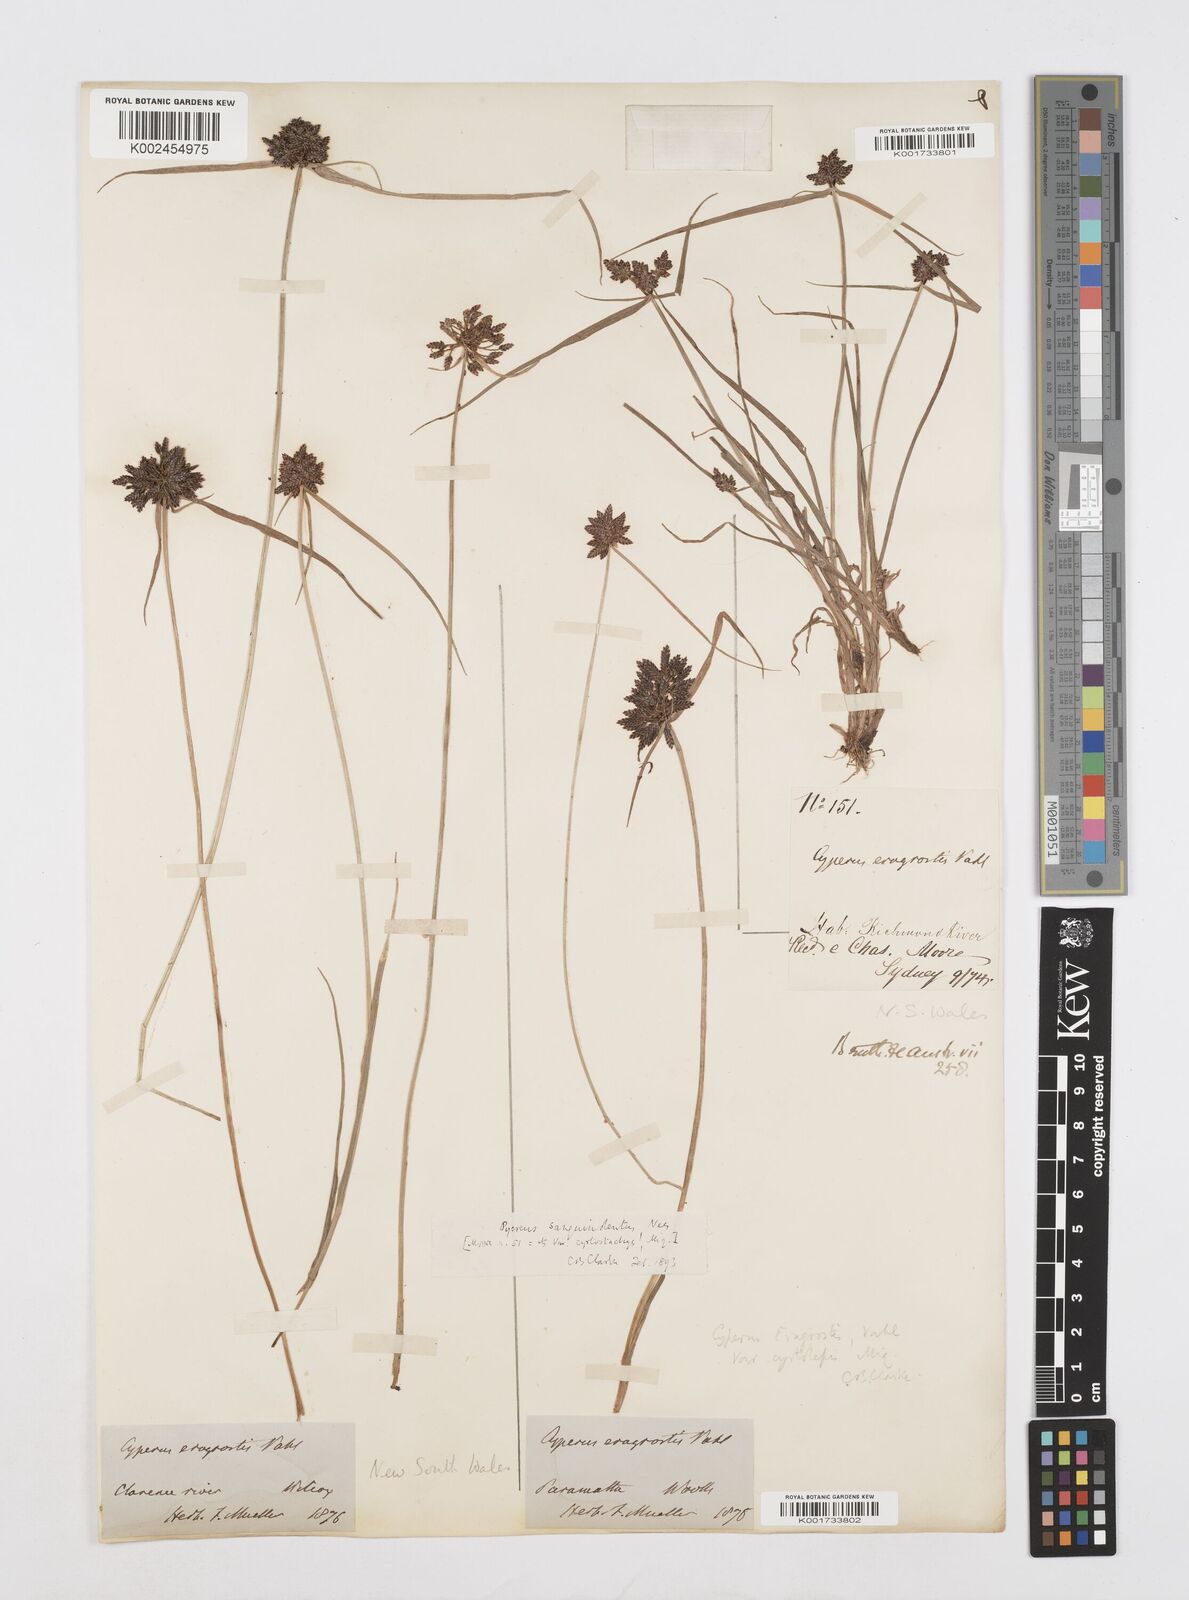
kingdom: Plantae
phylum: Tracheophyta
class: Liliopsida
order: Poales
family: Cyperaceae
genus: Cyperus
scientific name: Cyperus sanguinolentus
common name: Purpleglume flatsedge
